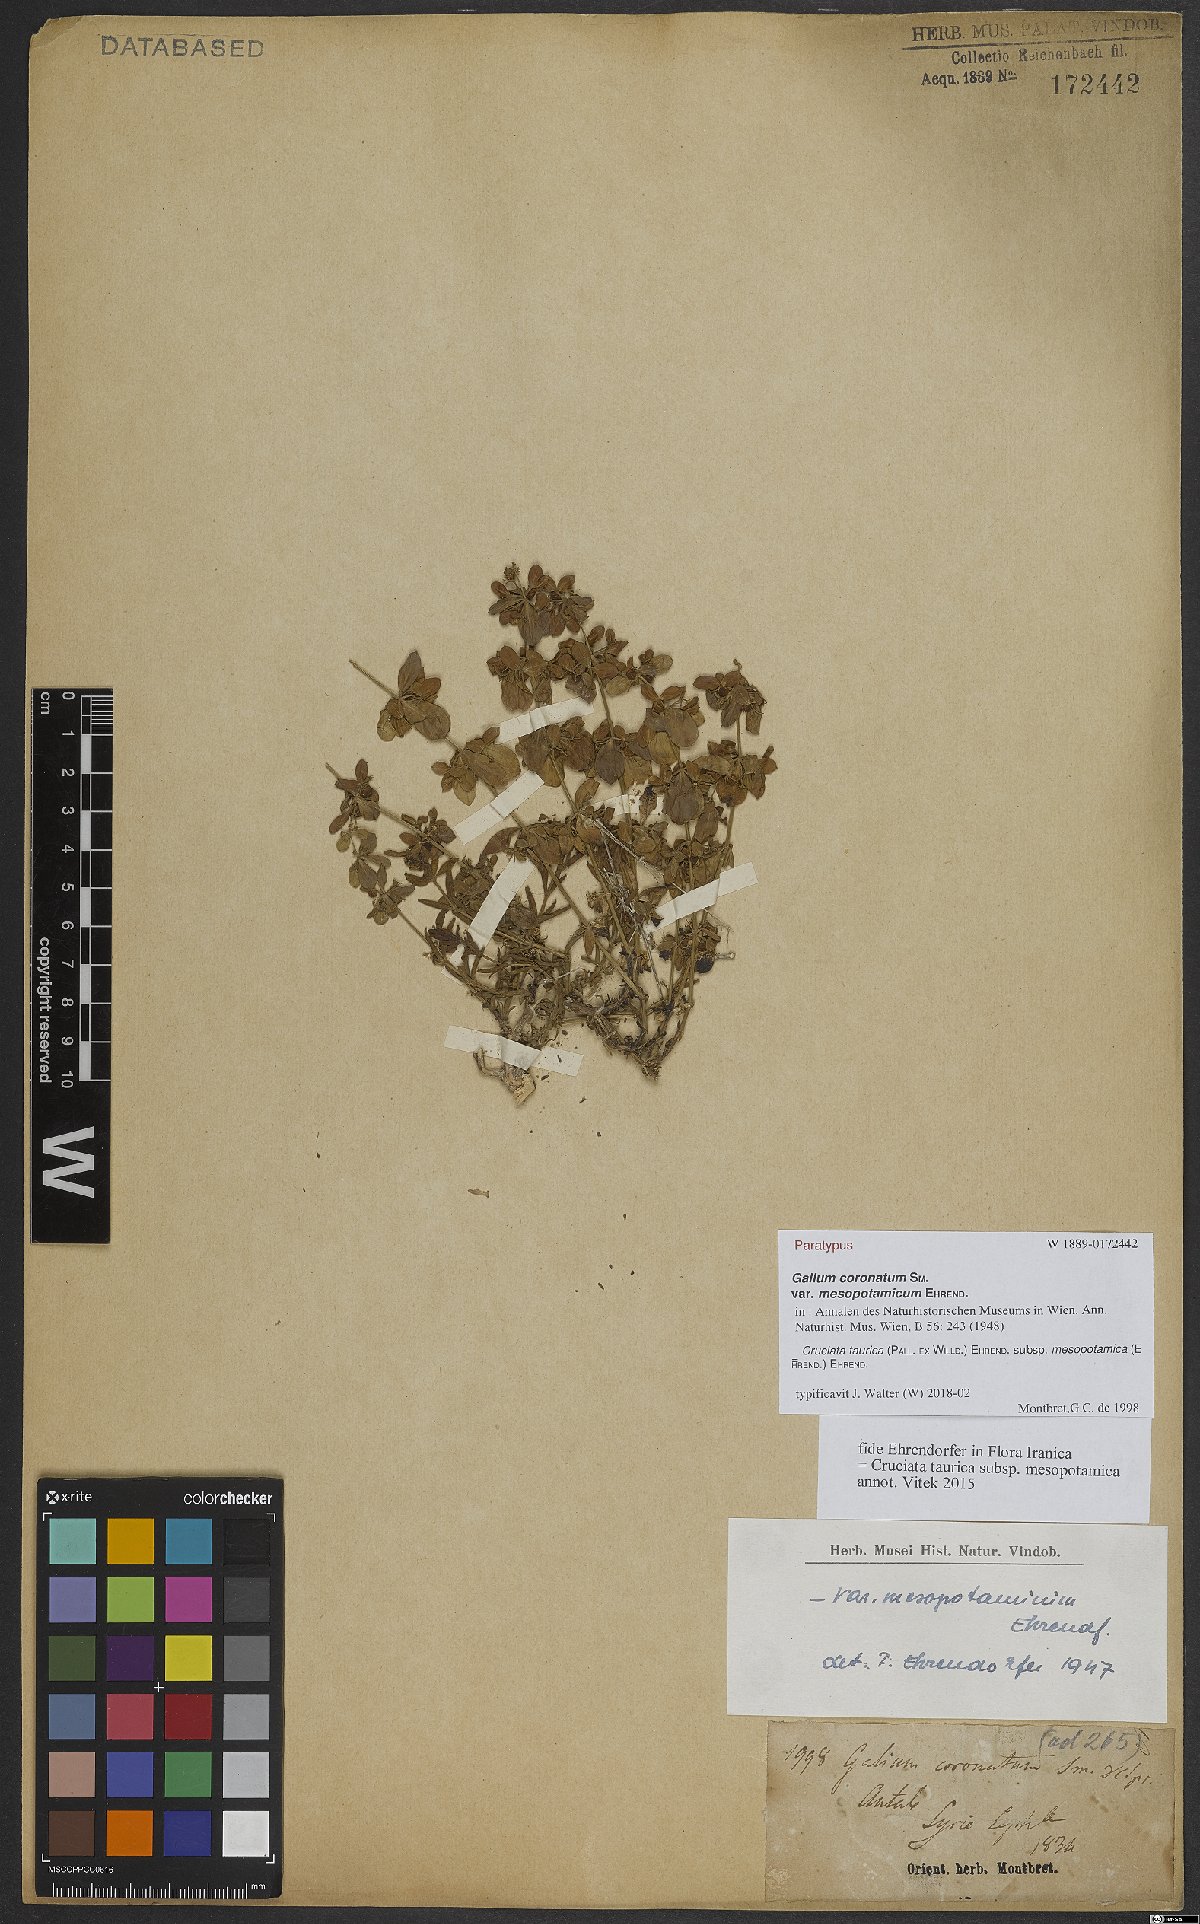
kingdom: Plantae
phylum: Tracheophyta
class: Magnoliopsida
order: Gentianales
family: Rubiaceae
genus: Cruciata
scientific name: Cruciata taurica
